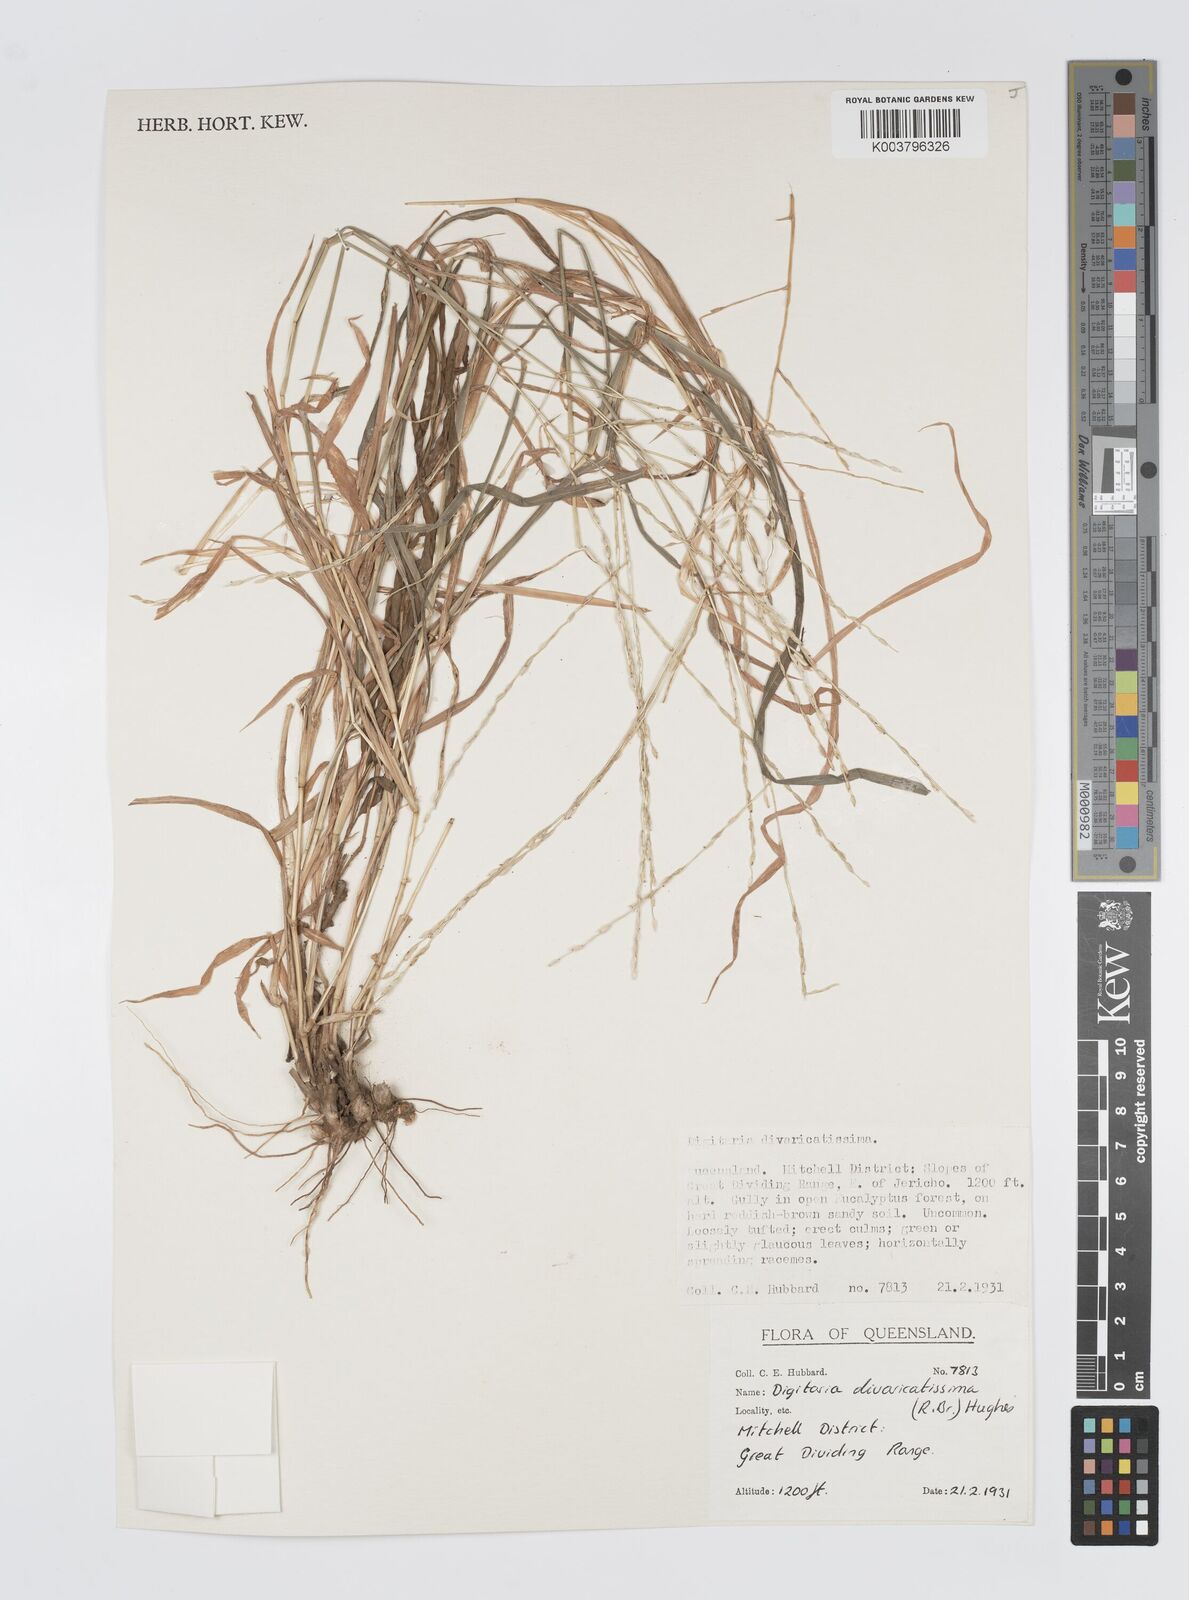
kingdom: Plantae
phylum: Tracheophyta
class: Liliopsida
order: Poales
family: Poaceae
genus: Digitaria
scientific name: Digitaria spec
